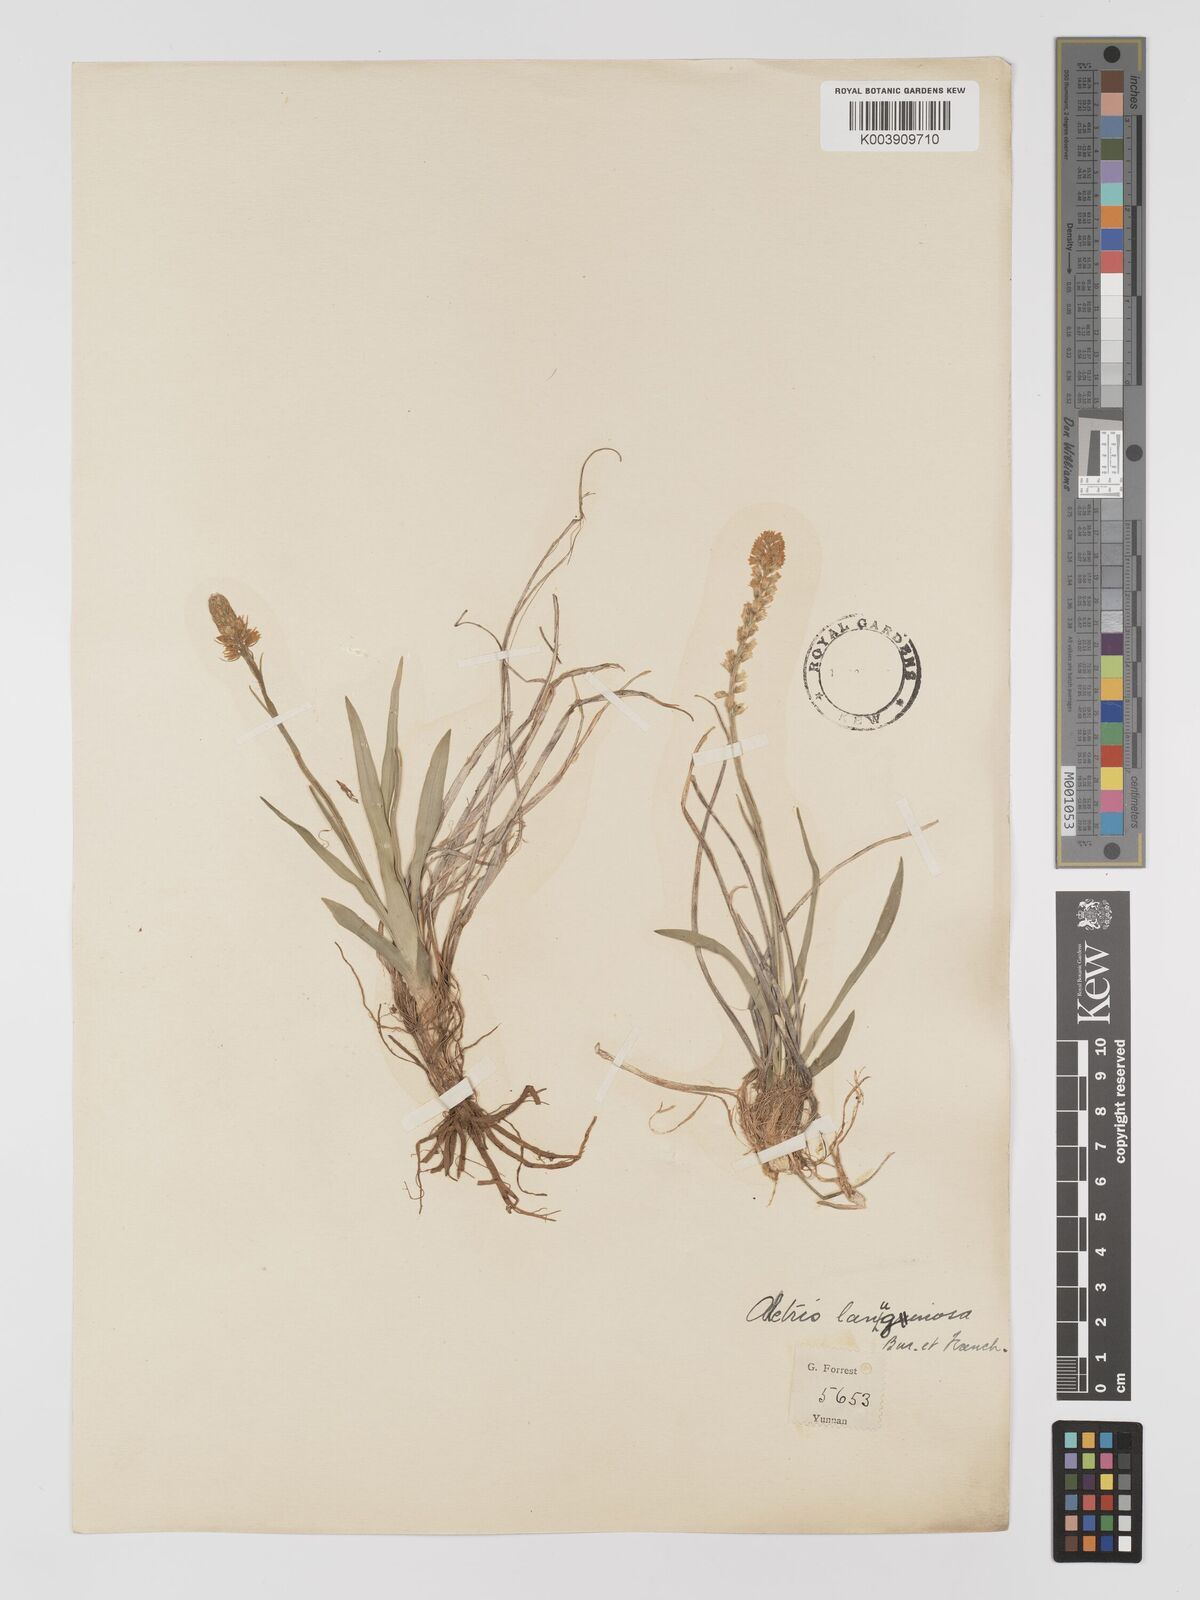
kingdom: Plantae
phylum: Tracheophyta
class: Liliopsida
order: Dioscoreales
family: Nartheciaceae
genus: Aletris
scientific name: Aletris pauciflora
